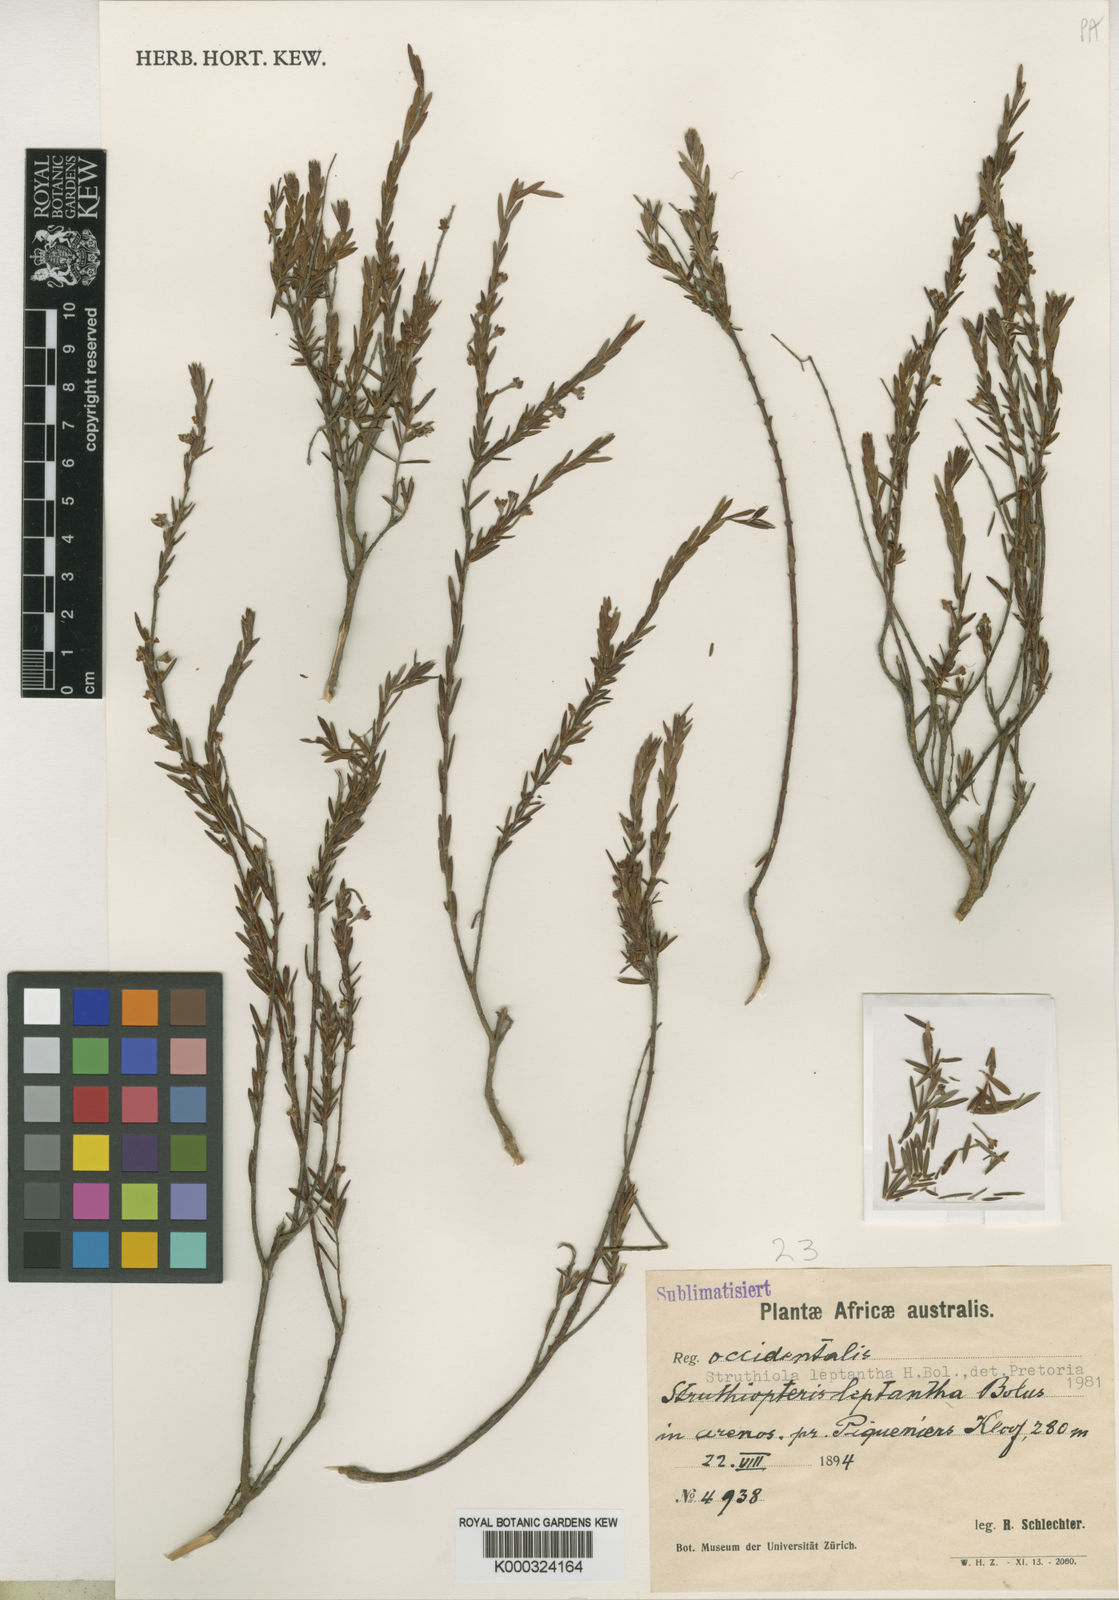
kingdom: Plantae
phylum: Tracheophyta
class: Magnoliopsida
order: Malvales
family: Thymelaeaceae
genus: Struthiola
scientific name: Struthiola leptantha
